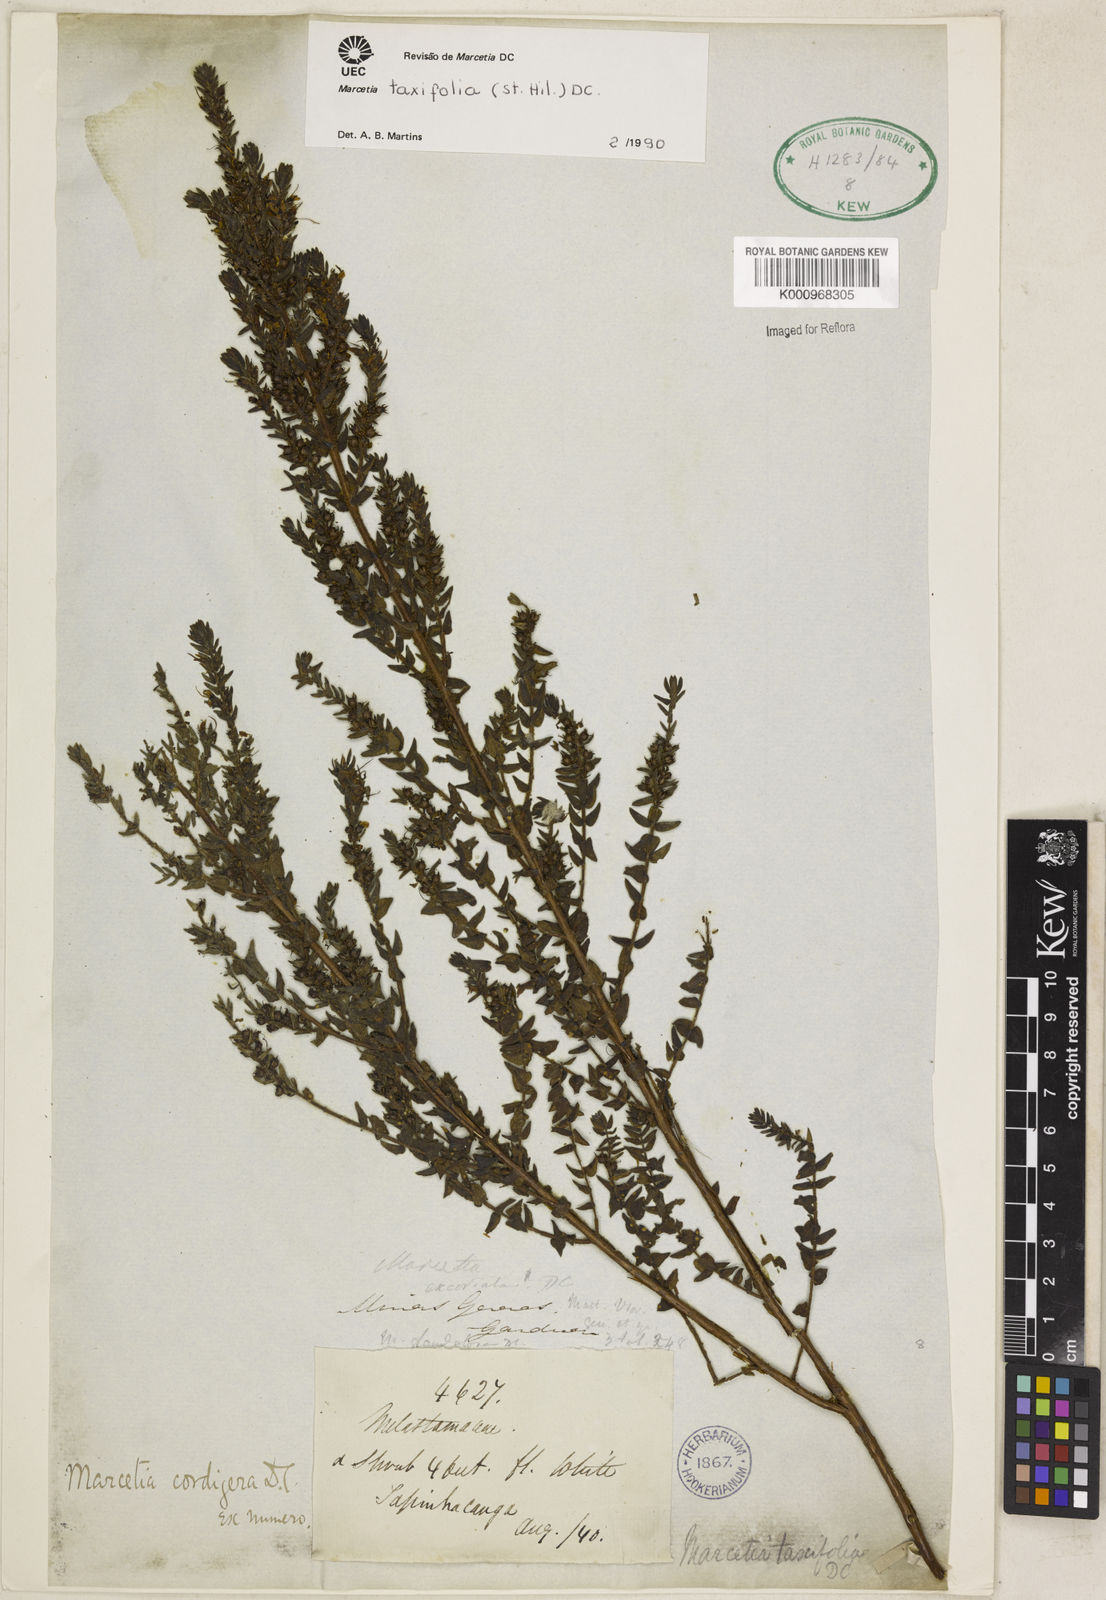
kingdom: Plantae
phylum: Tracheophyta
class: Magnoliopsida
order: Myrtales
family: Melastomataceae
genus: Marcetia
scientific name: Marcetia taxifolia
